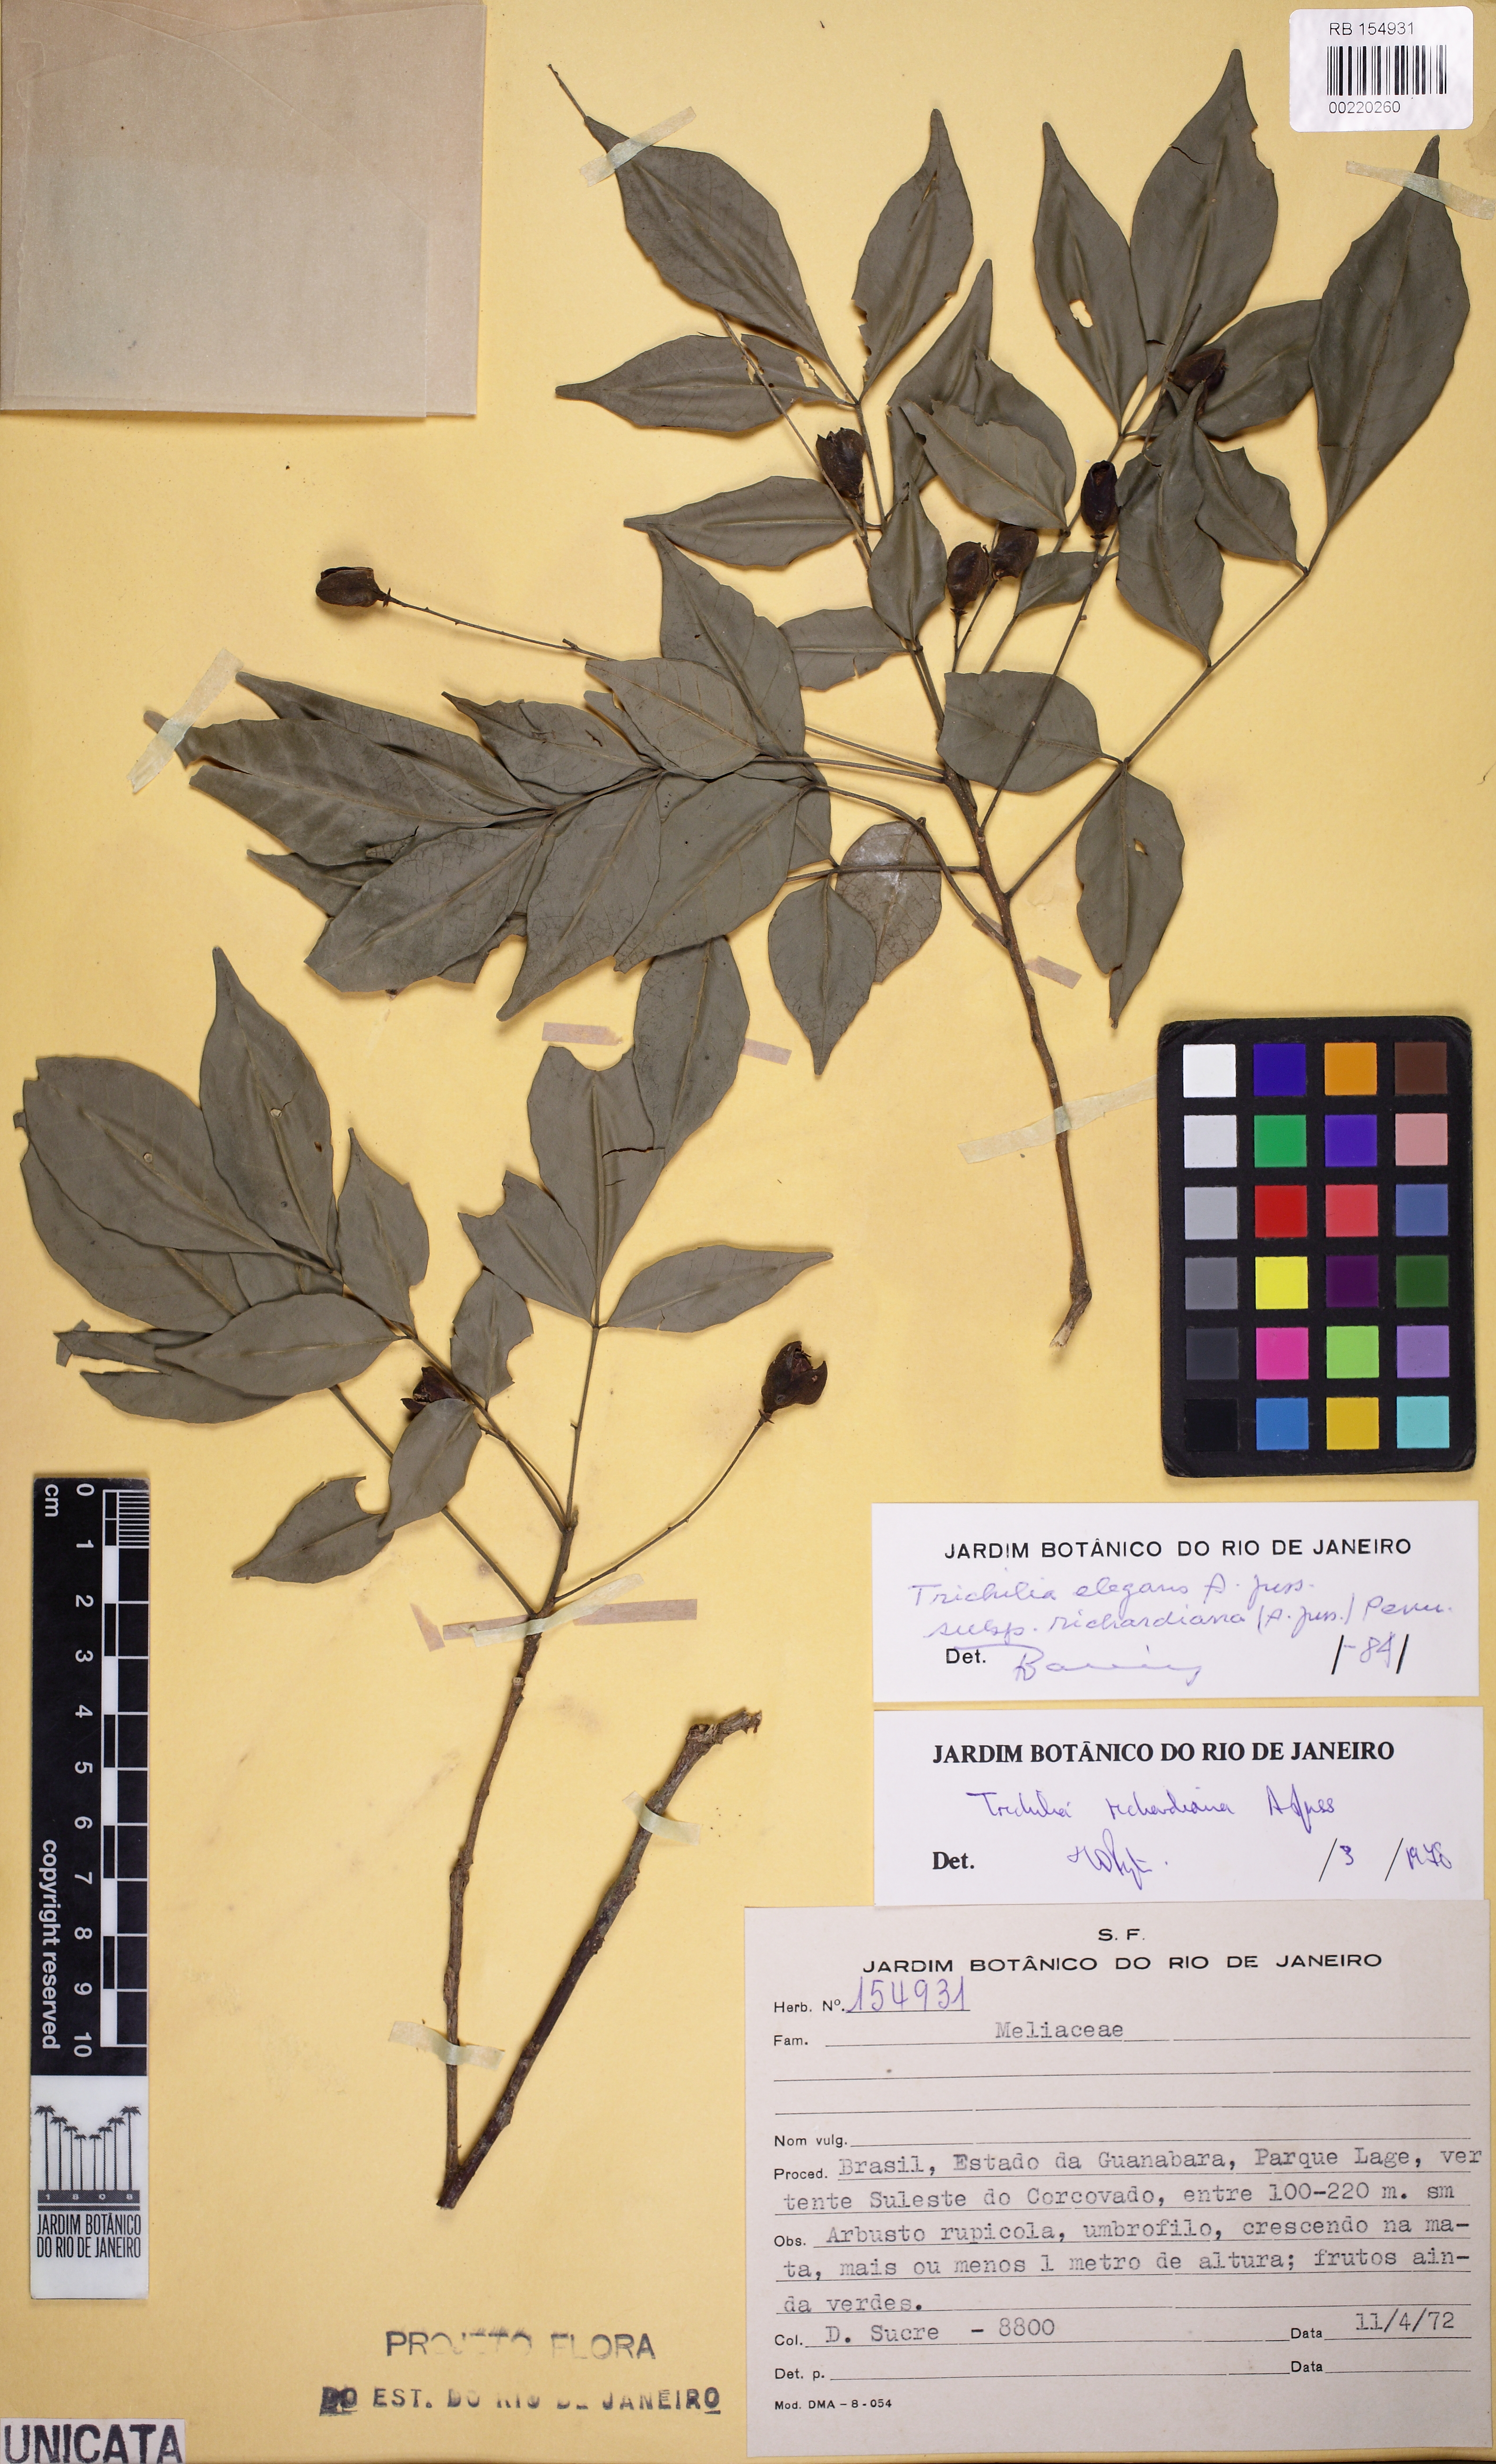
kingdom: Plantae
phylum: Tracheophyta
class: Magnoliopsida
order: Sapindales
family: Meliaceae
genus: Trichilia
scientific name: Trichilia elegans
